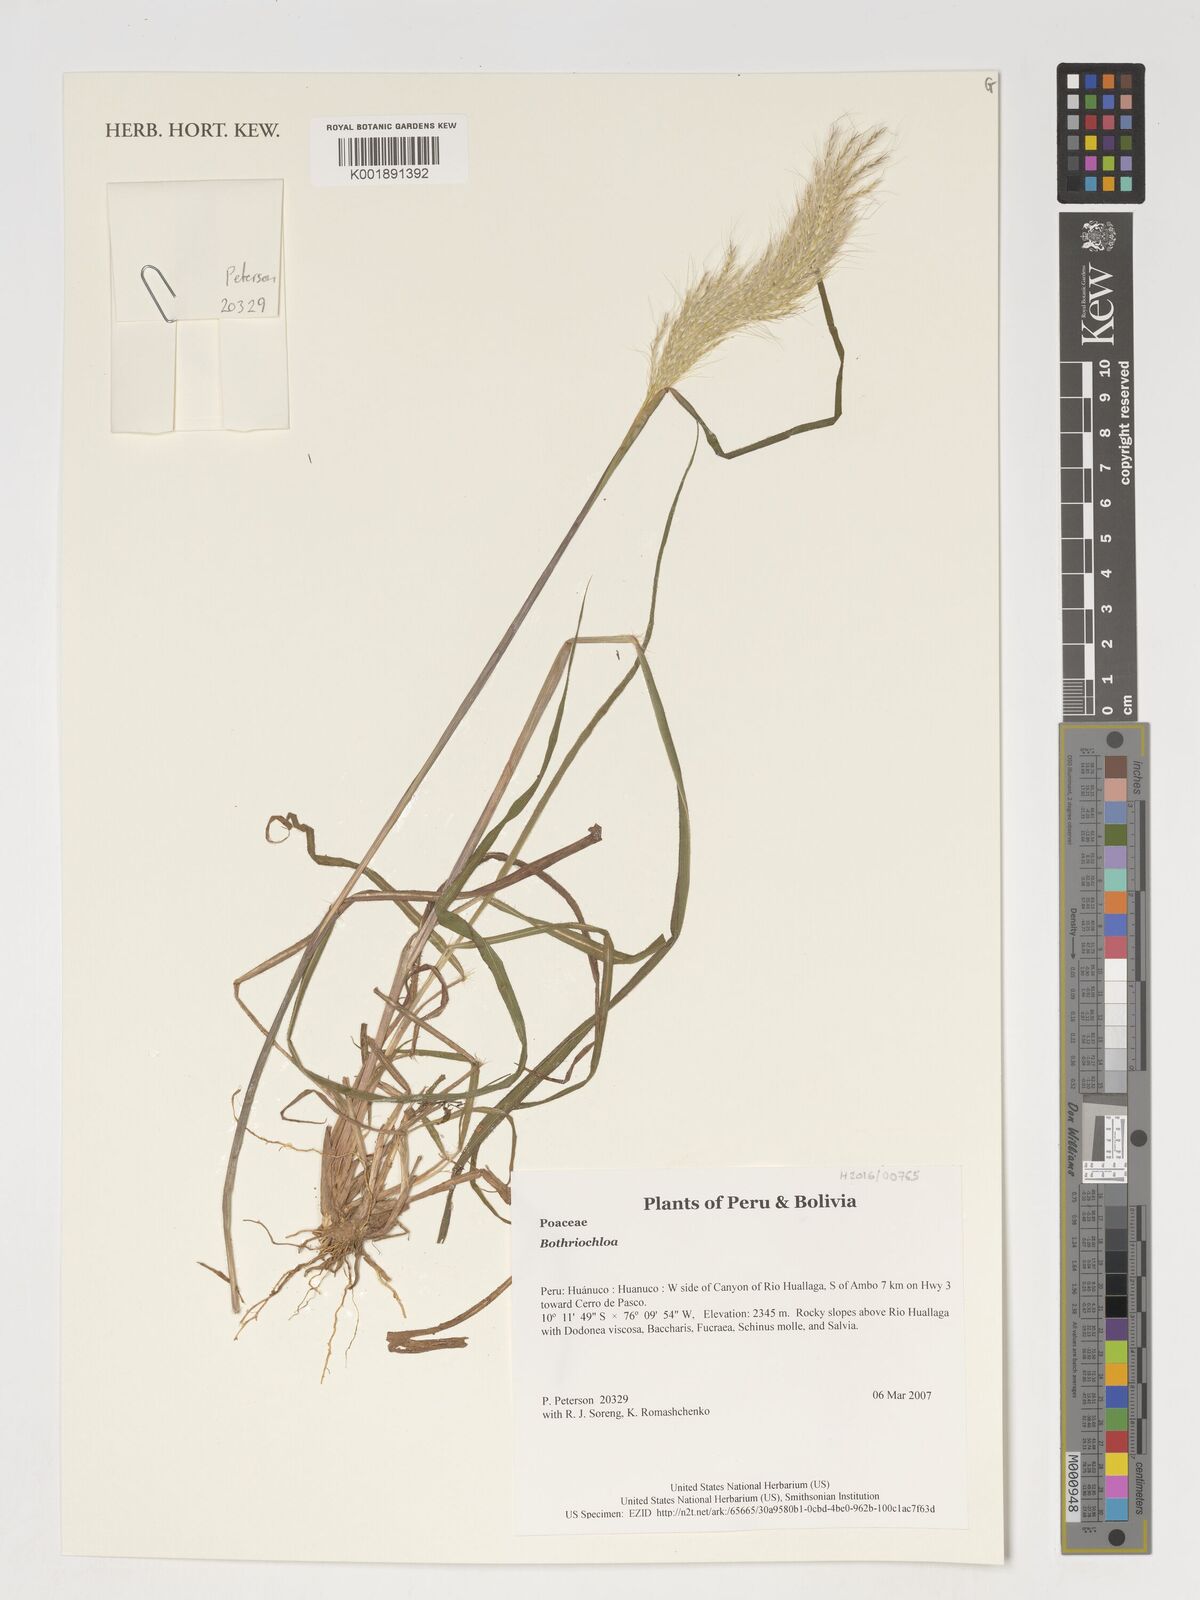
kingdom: Plantae
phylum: Tracheophyta
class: Liliopsida
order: Poales
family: Poaceae
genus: Bothriochloa
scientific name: Bothriochloa
